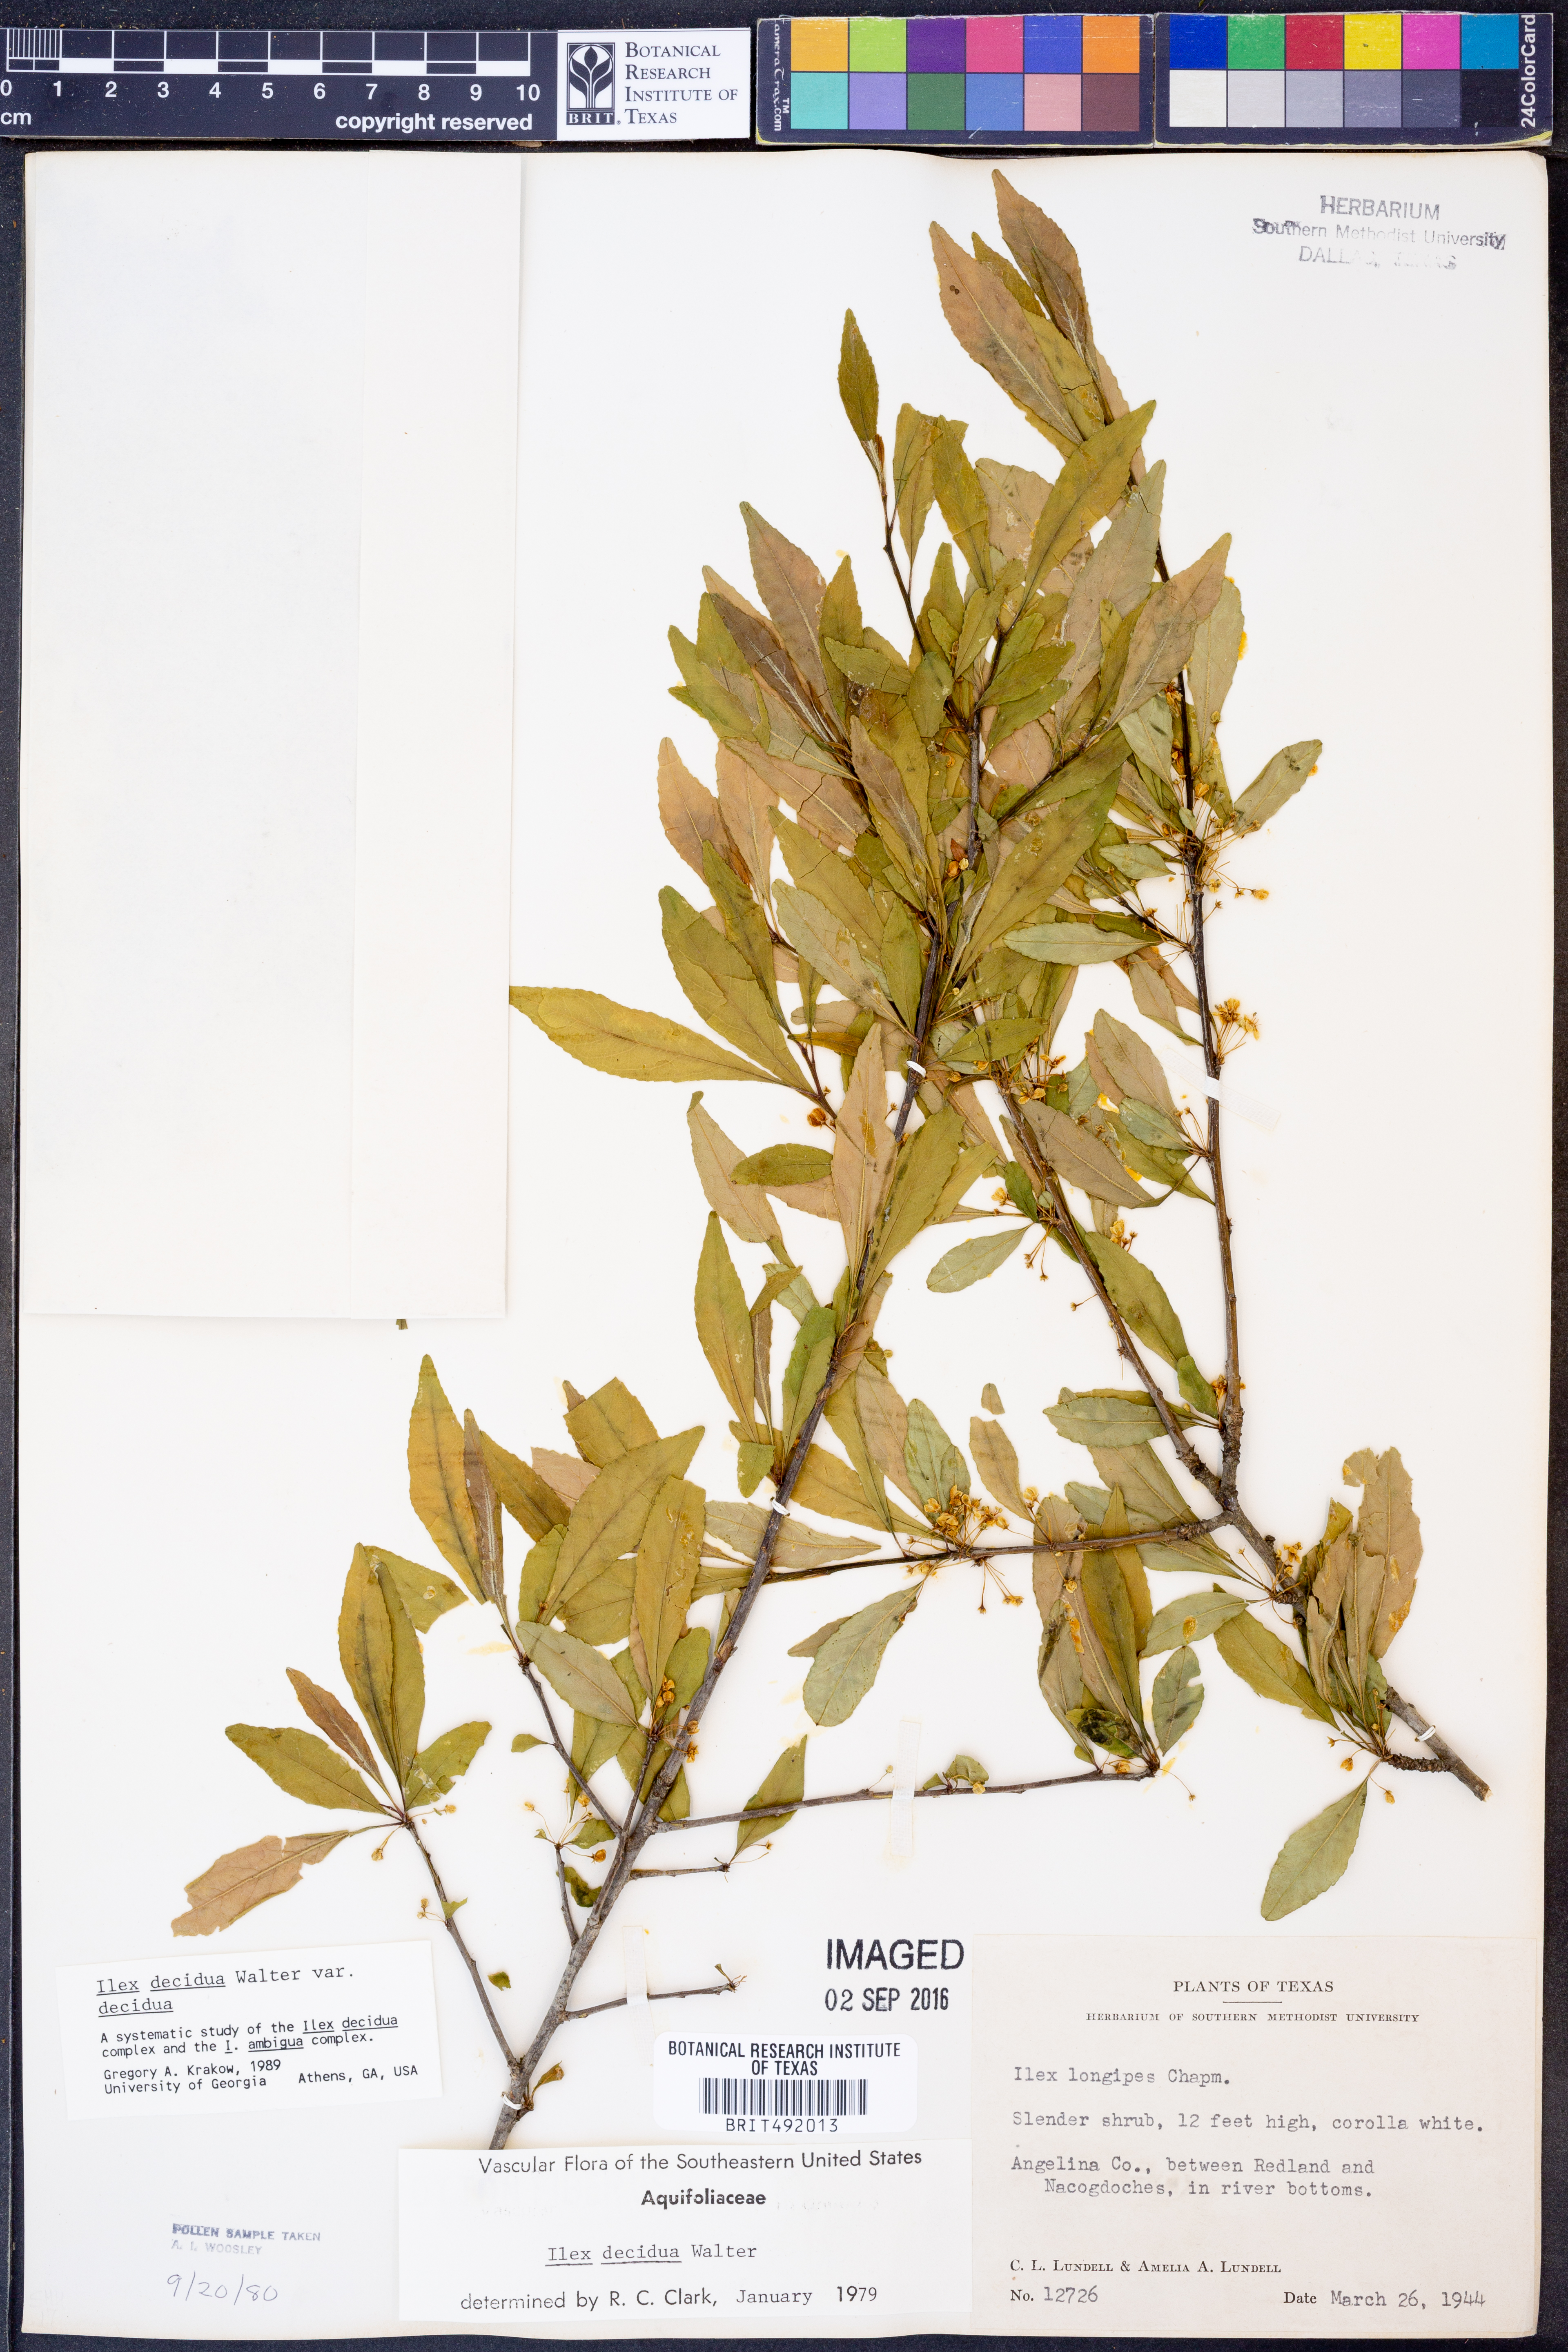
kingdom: Plantae
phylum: Tracheophyta
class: Magnoliopsida
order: Aquifoliales
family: Aquifoliaceae
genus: Ilex
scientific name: Ilex decidua
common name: Possum-haw
